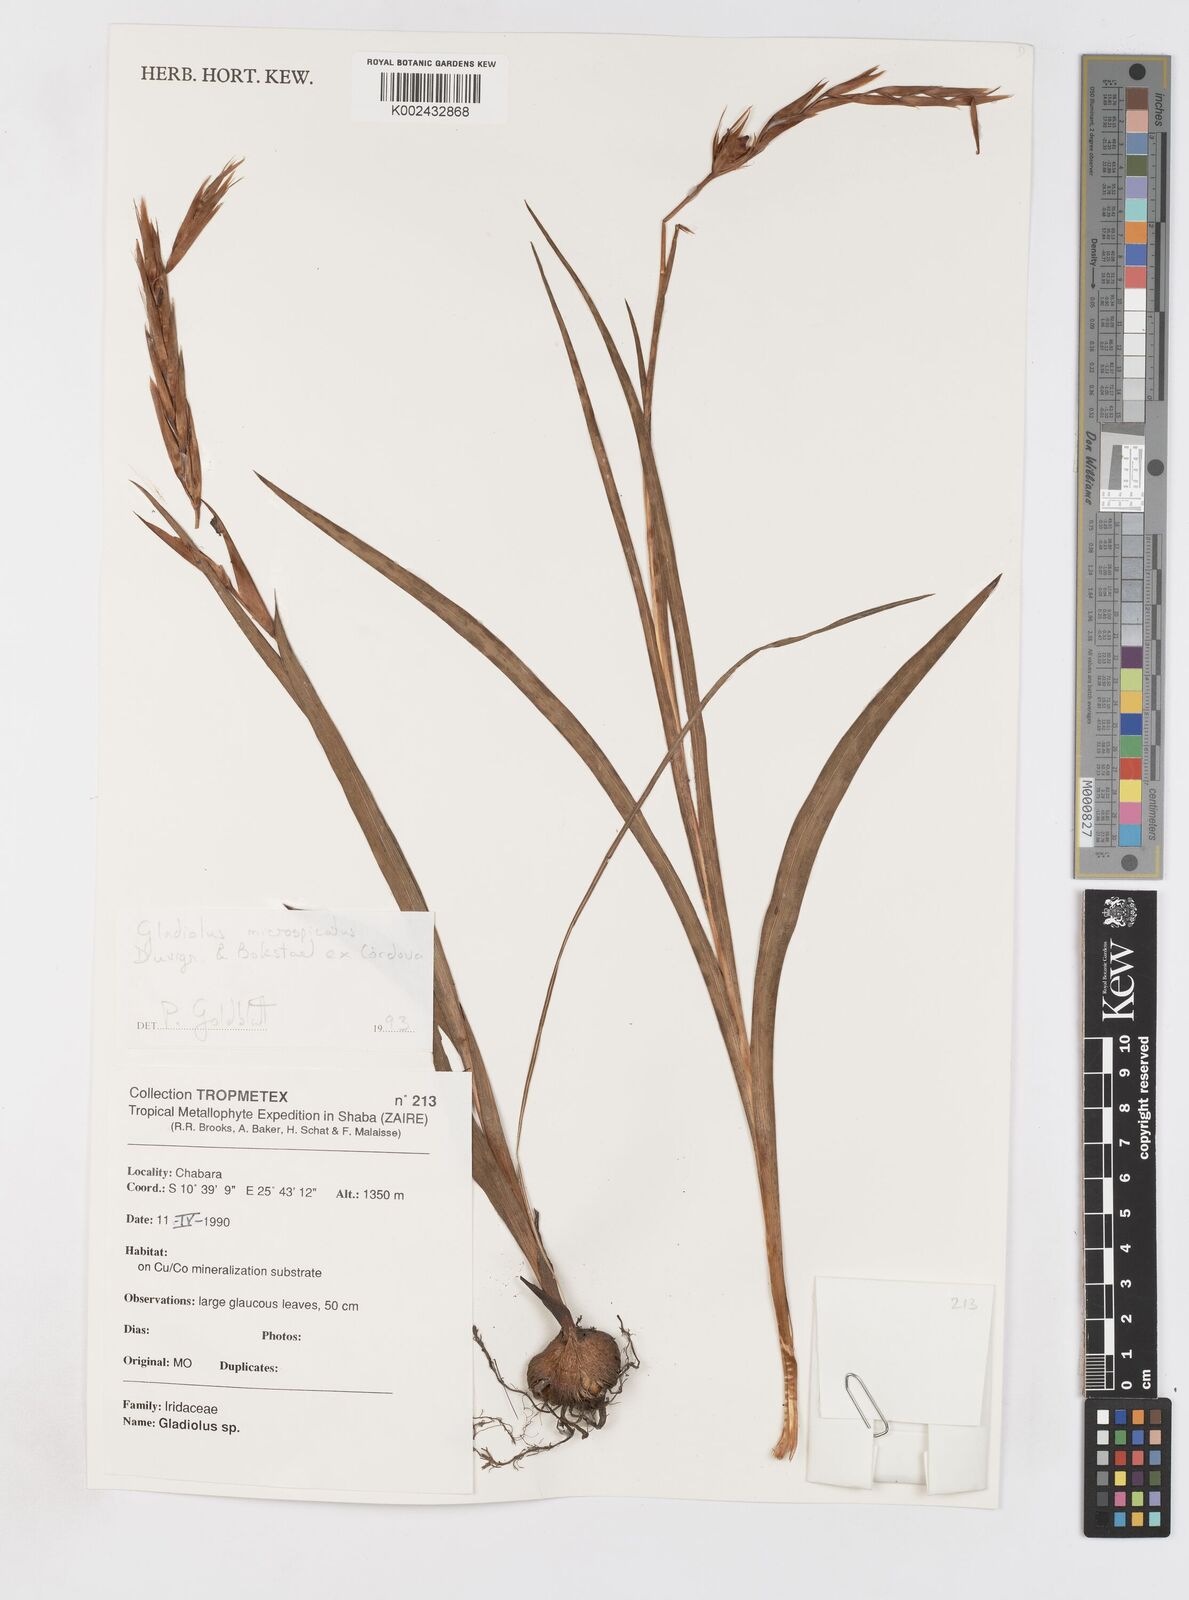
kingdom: Plantae
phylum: Tracheophyta
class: Liliopsida
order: Asparagales
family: Iridaceae
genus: Gladiolus
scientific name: Gladiolus microspicatus
